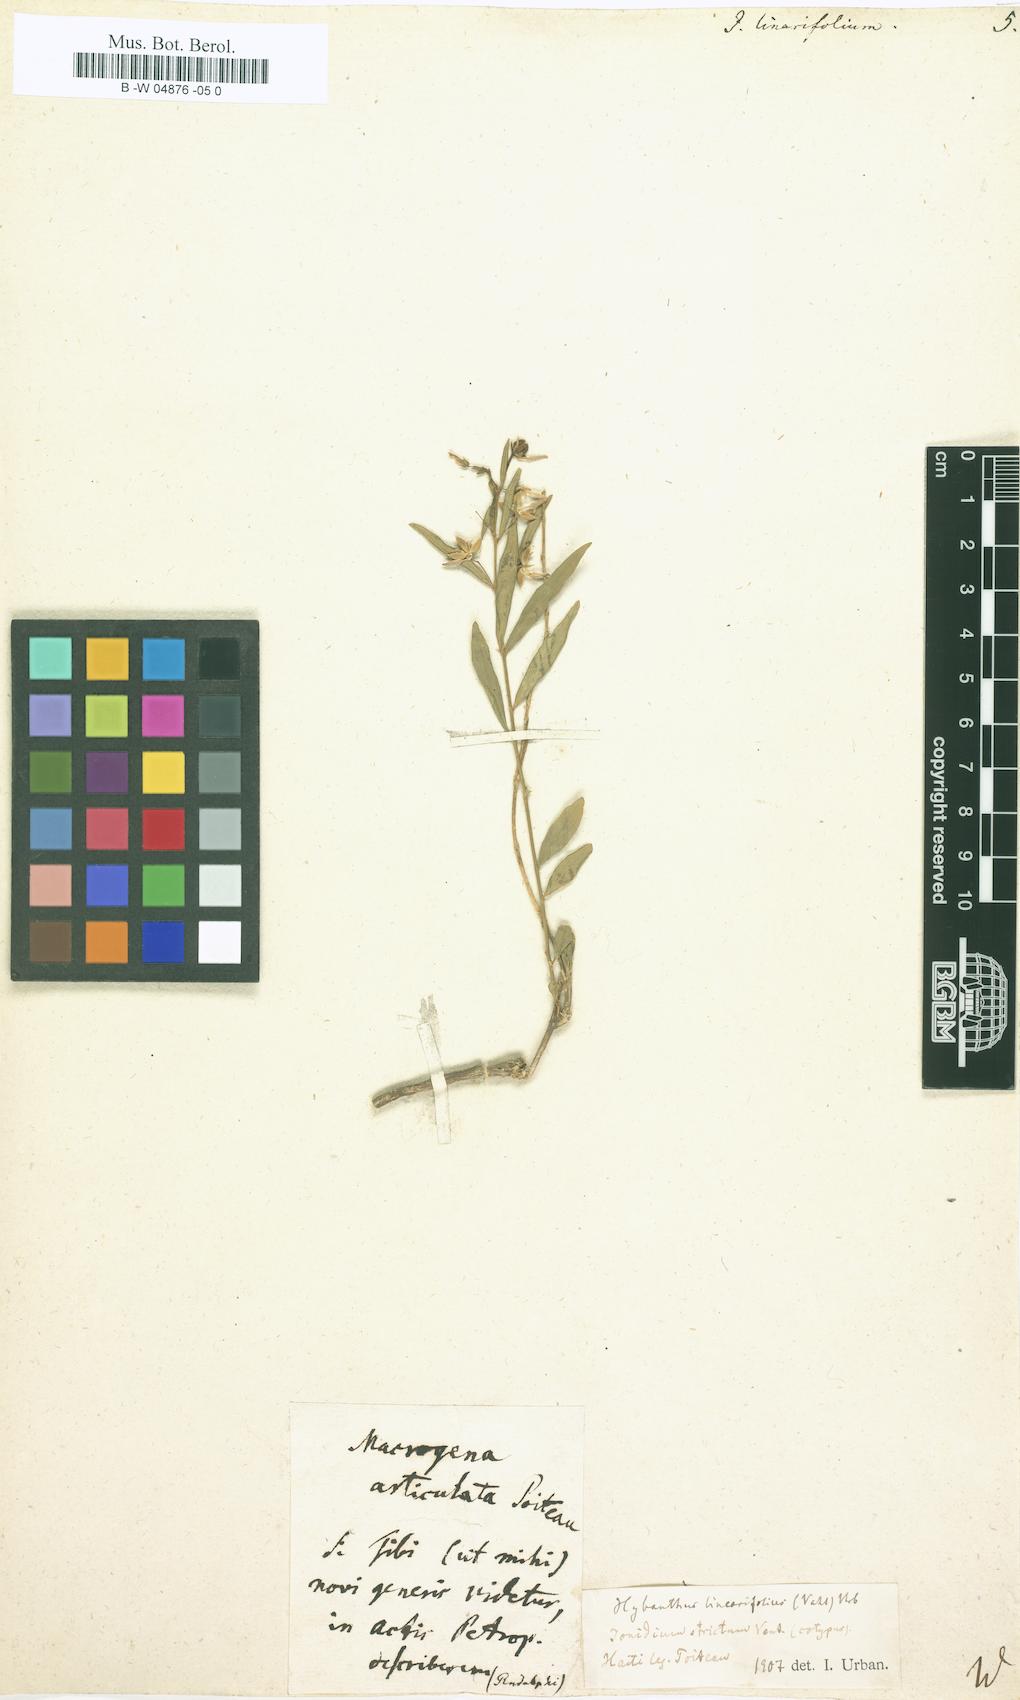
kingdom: Plantae
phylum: Tracheophyta
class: Magnoliopsida
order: Malpighiales
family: Violaceae
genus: Pombalia
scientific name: Pombalia linearifolia
